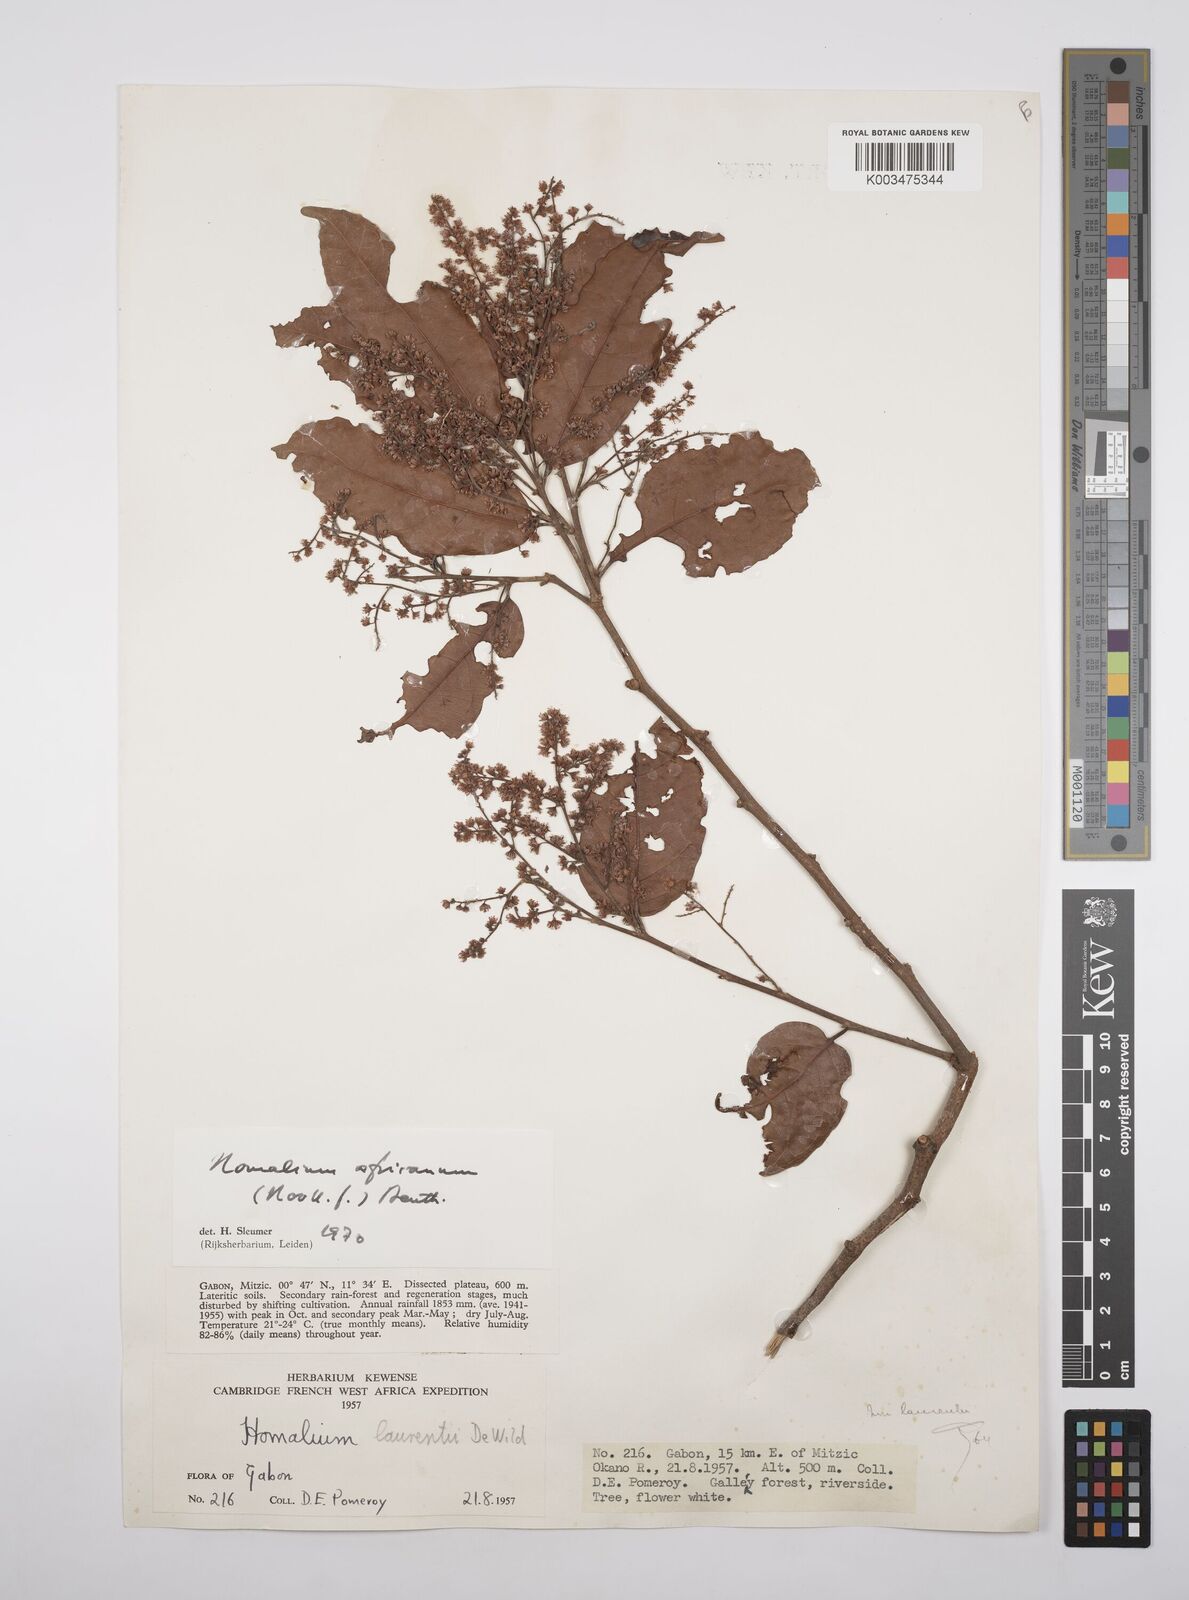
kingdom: Plantae
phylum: Tracheophyta
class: Magnoliopsida
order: Malpighiales
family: Salicaceae
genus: Homalium
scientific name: Homalium africanum
